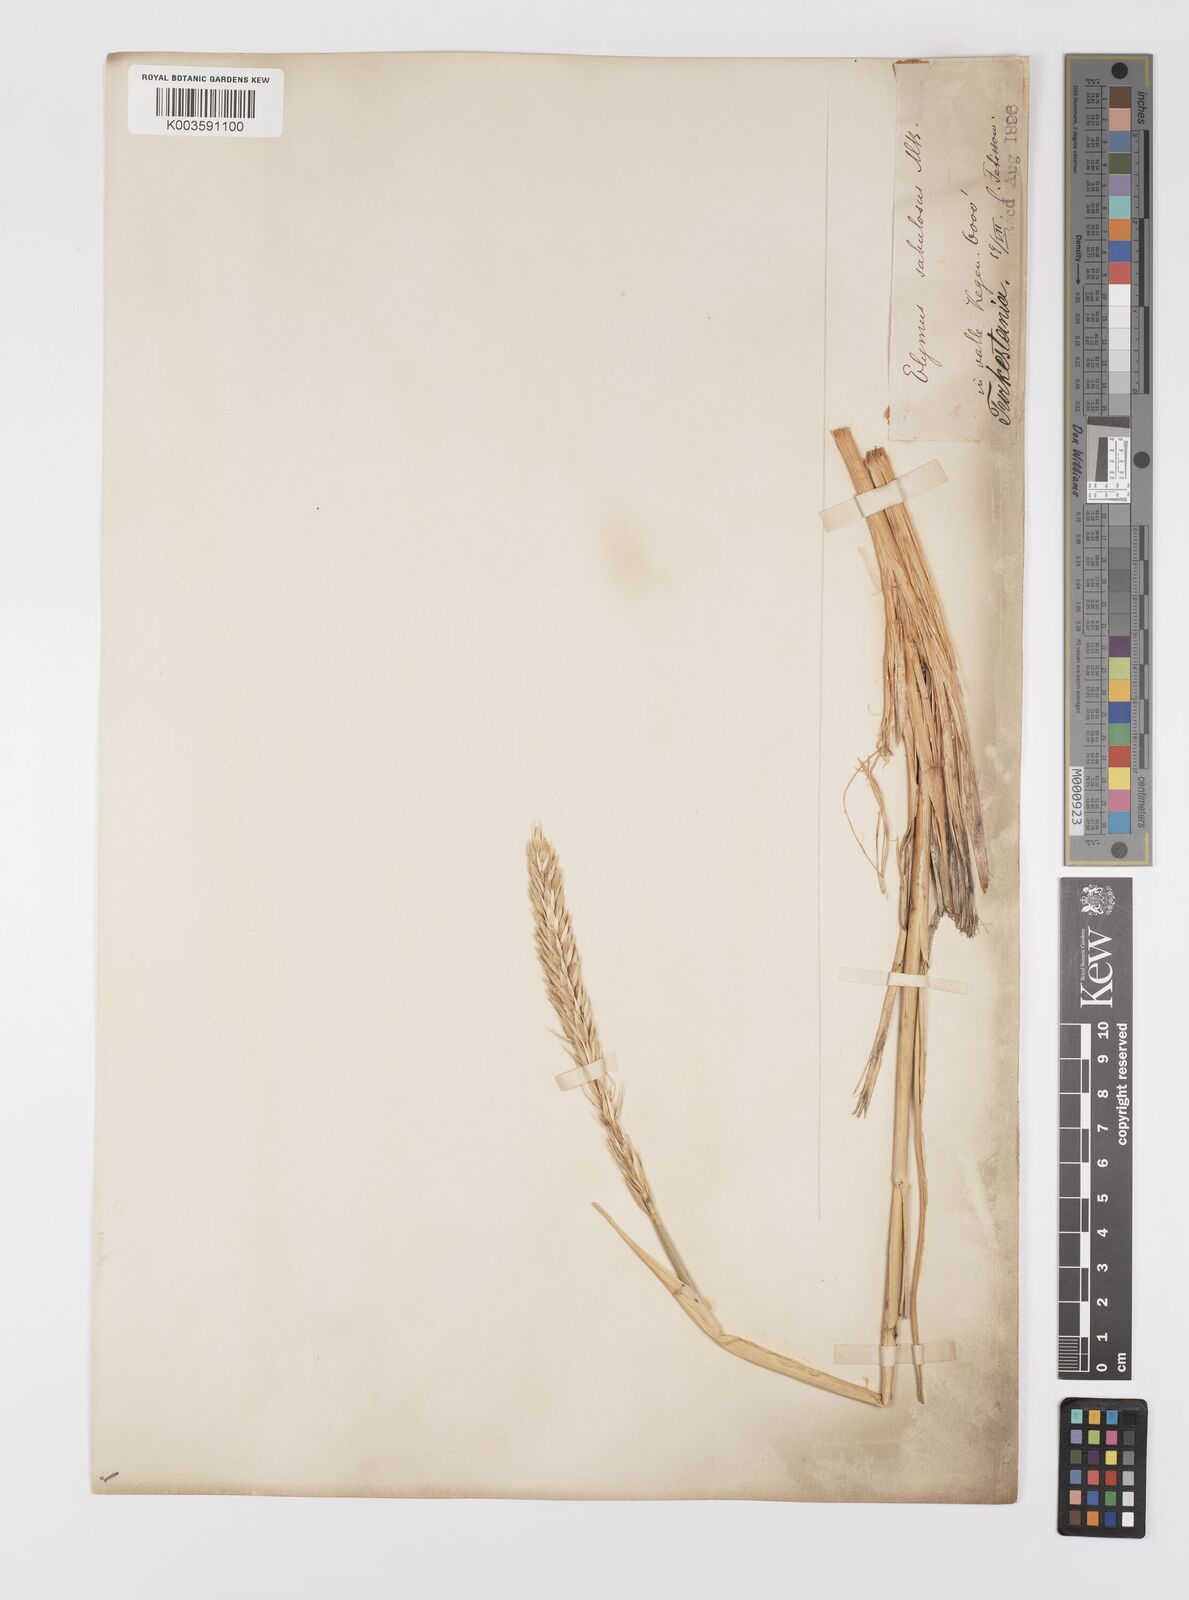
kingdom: Plantae
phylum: Tracheophyta
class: Liliopsida
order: Poales
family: Poaceae
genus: Leymus
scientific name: Leymus racemosus
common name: Mammoth wildrye
